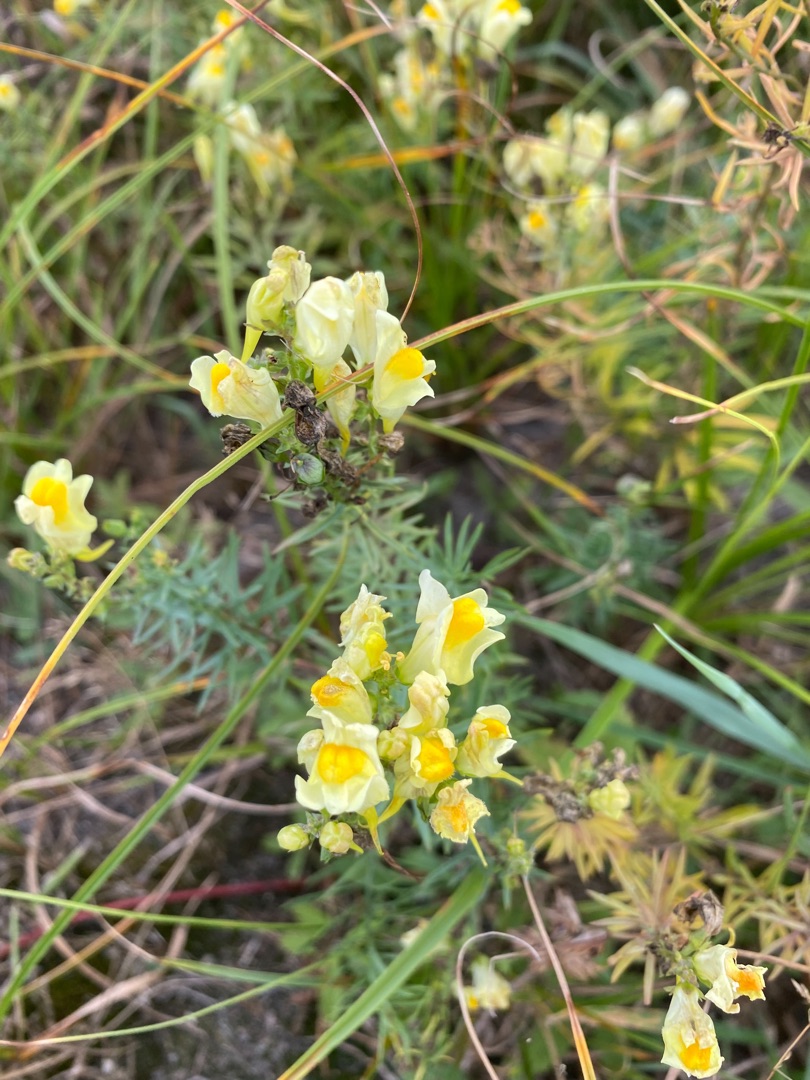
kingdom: Plantae
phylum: Tracheophyta
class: Magnoliopsida
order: Lamiales
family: Plantaginaceae
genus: Linaria
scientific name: Linaria vulgaris
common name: Almindelig torskemund
